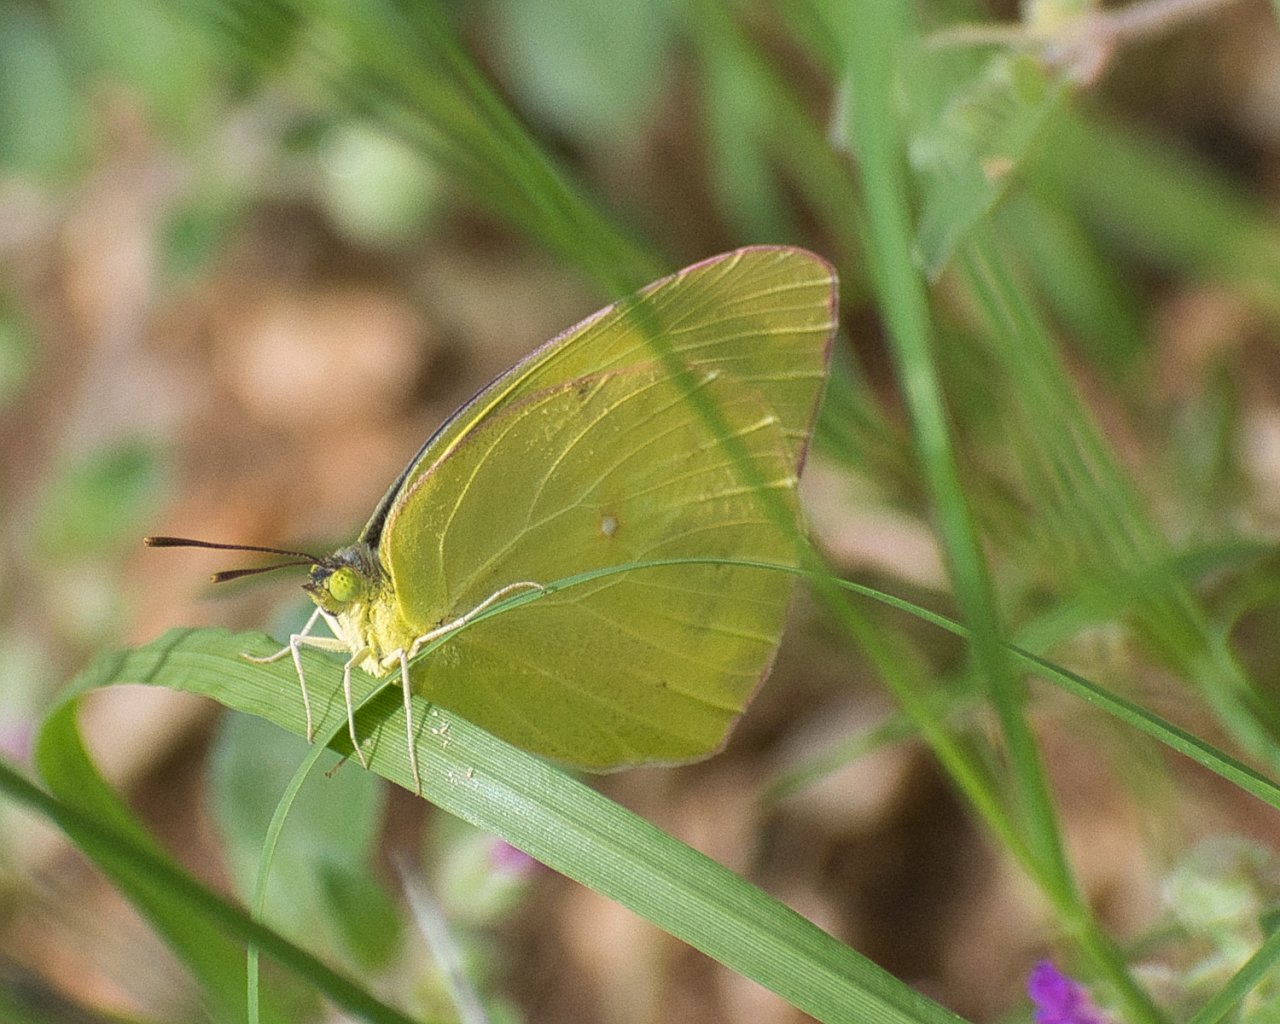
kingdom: Animalia
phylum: Arthropoda
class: Insecta
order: Lepidoptera
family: Pieridae
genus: Phoebis
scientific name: Phoebis sennae
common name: Cloudless Sulphur
